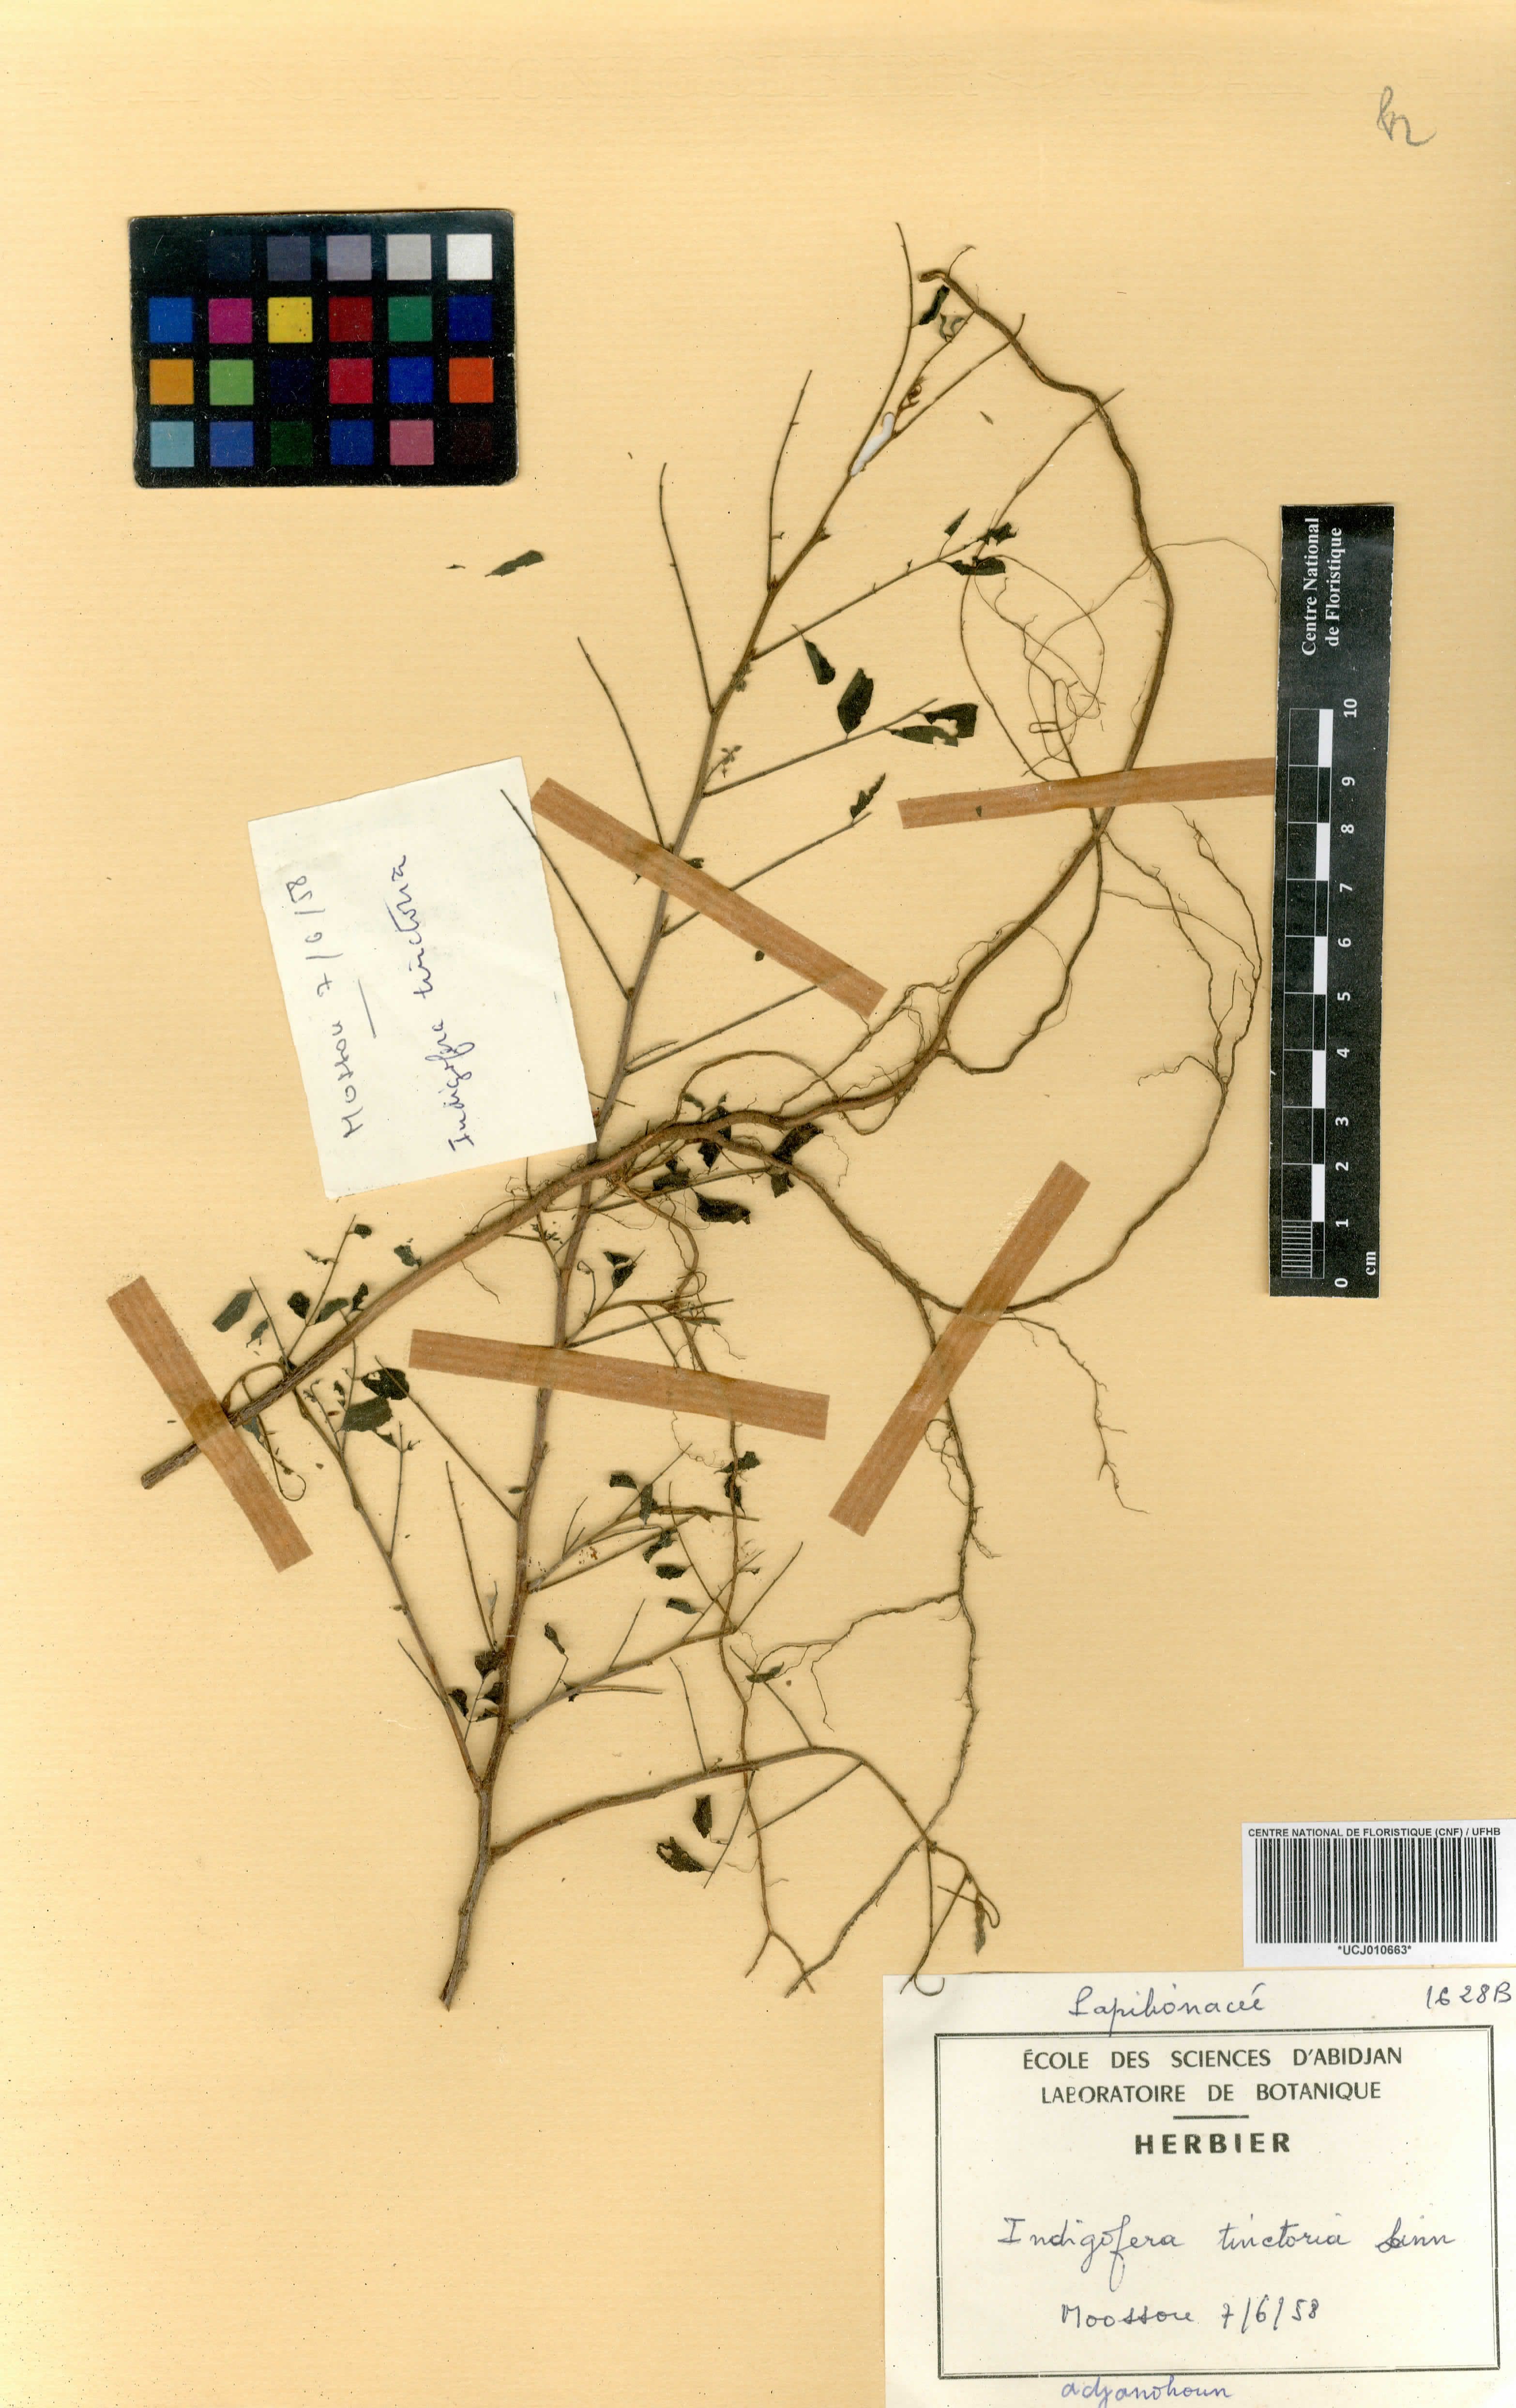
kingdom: Plantae
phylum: Tracheophyta
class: Magnoliopsida
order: Fabales
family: Fabaceae
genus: Indigofera
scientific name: Indigofera tinctoria
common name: True indigo
